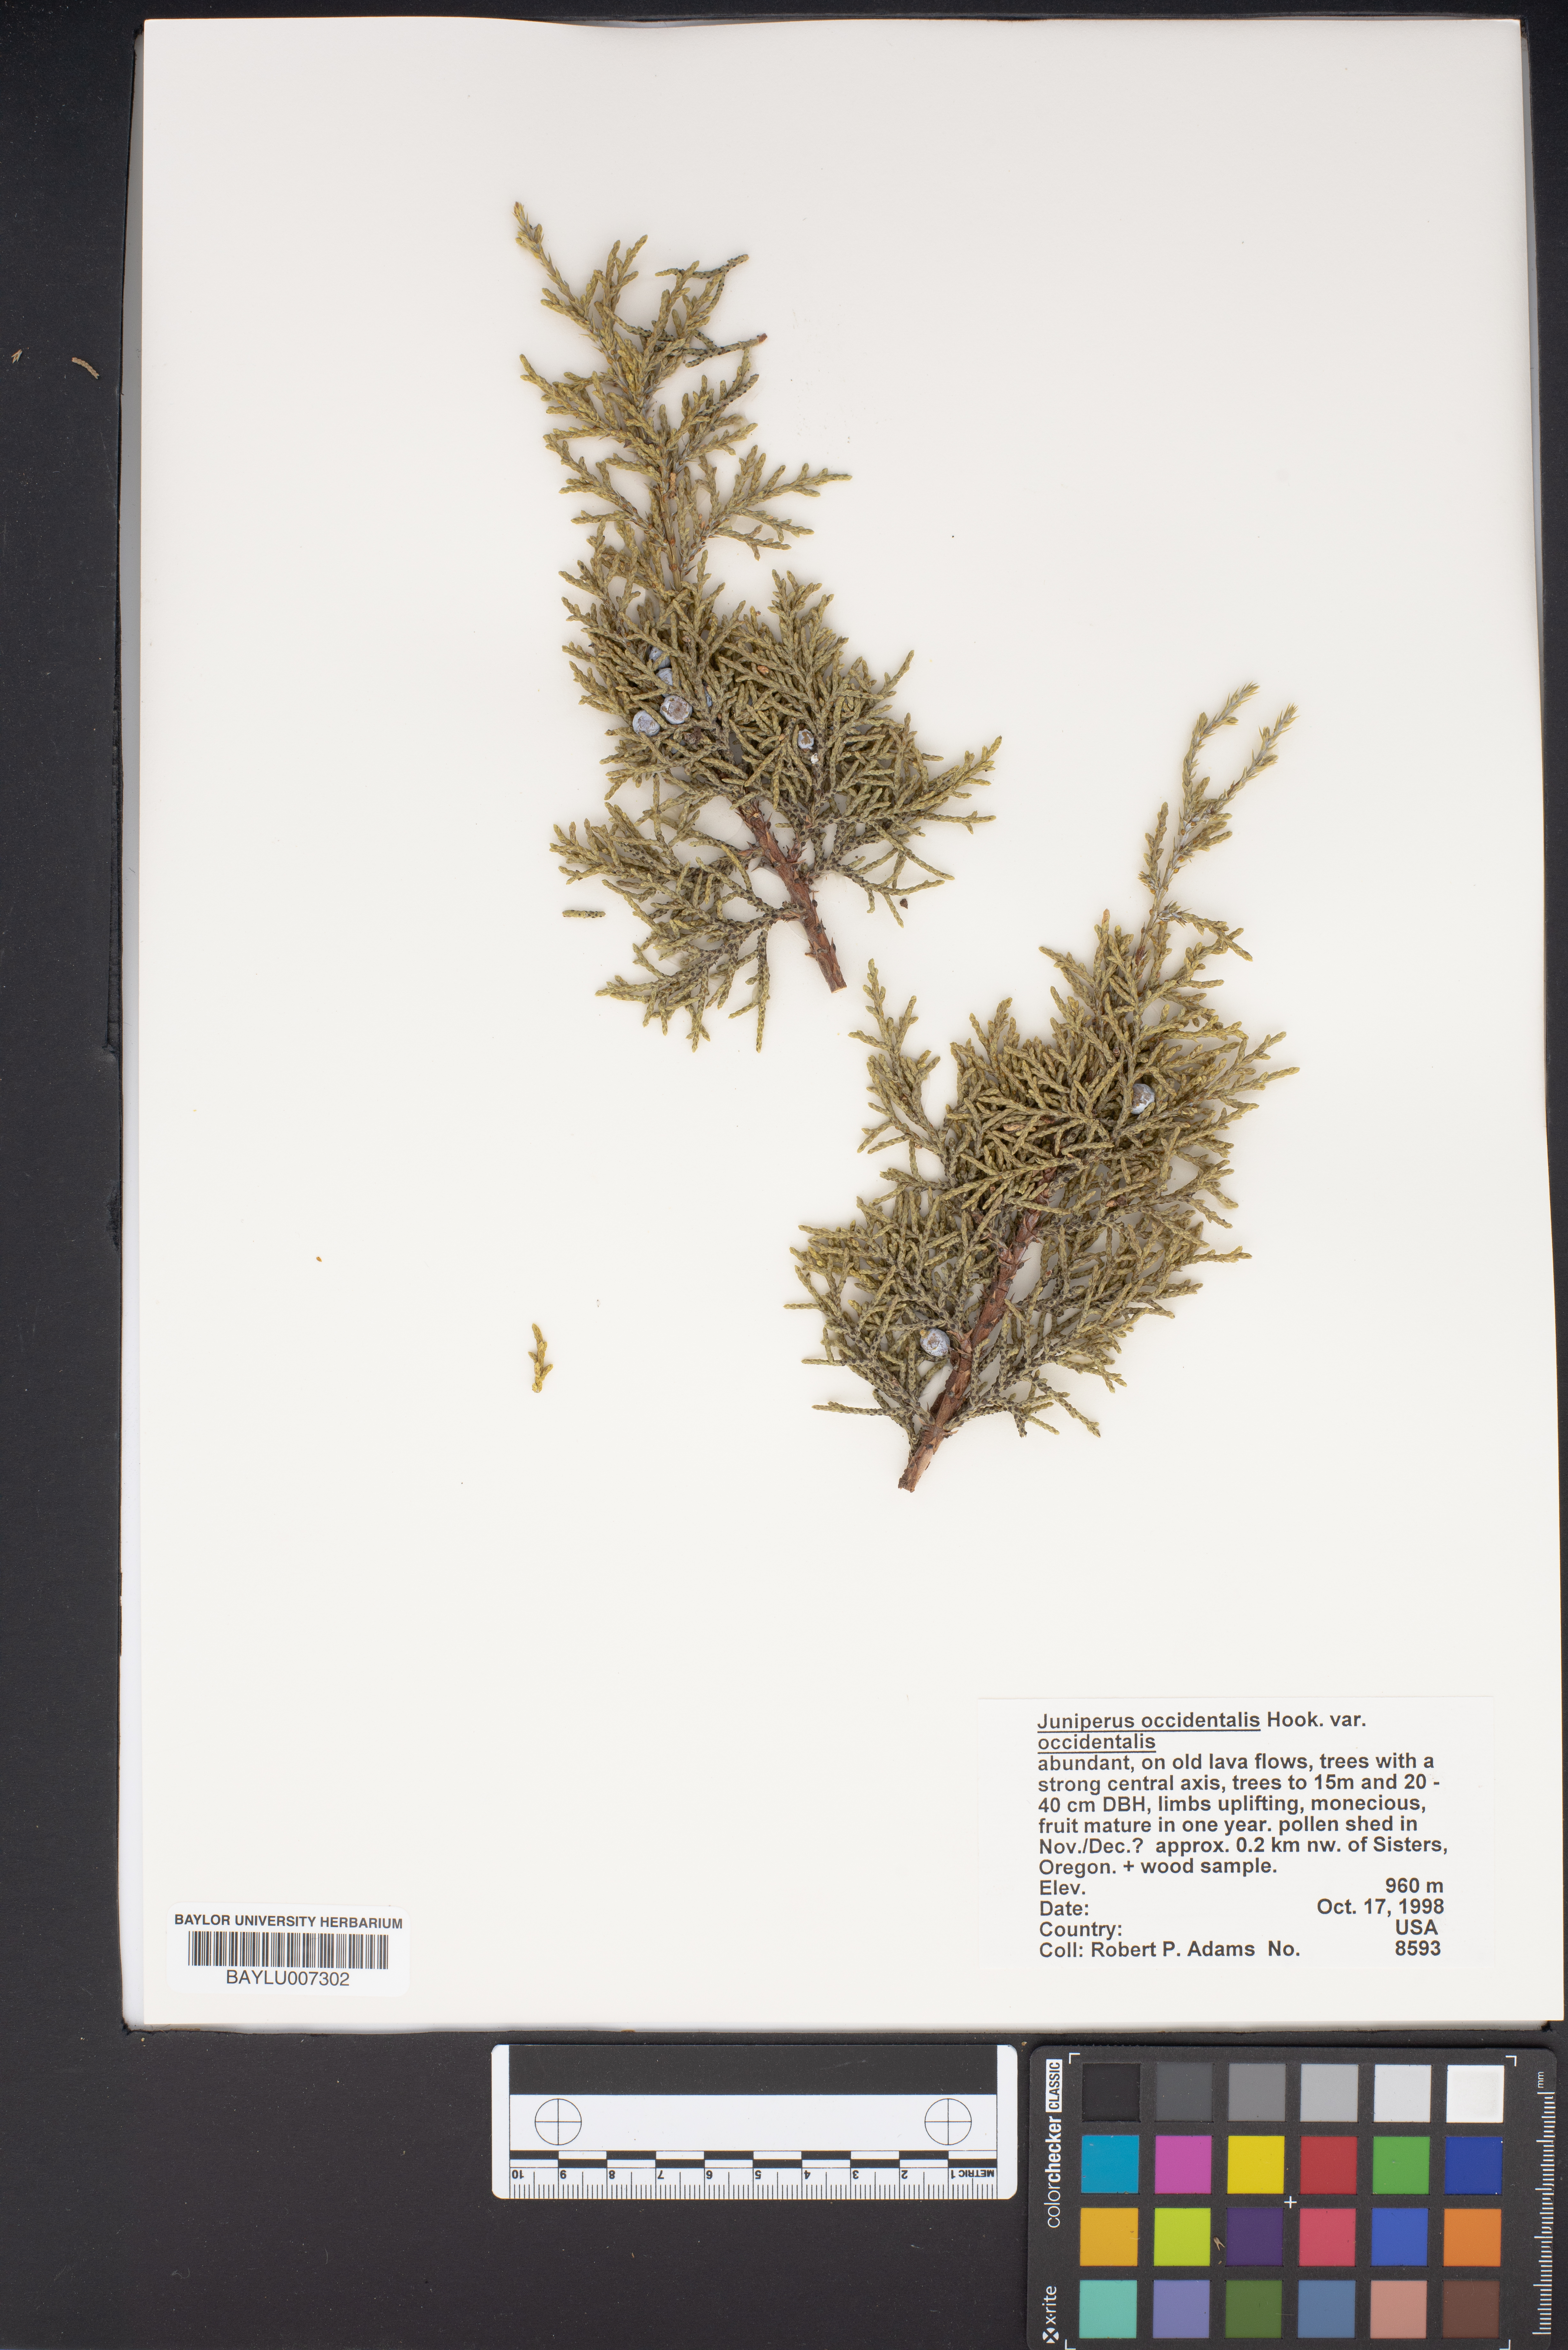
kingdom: Plantae
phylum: Tracheophyta
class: Pinopsida
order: Pinales
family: Cupressaceae
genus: Juniperus
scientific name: Juniperus occidentalis
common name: Western juniper
